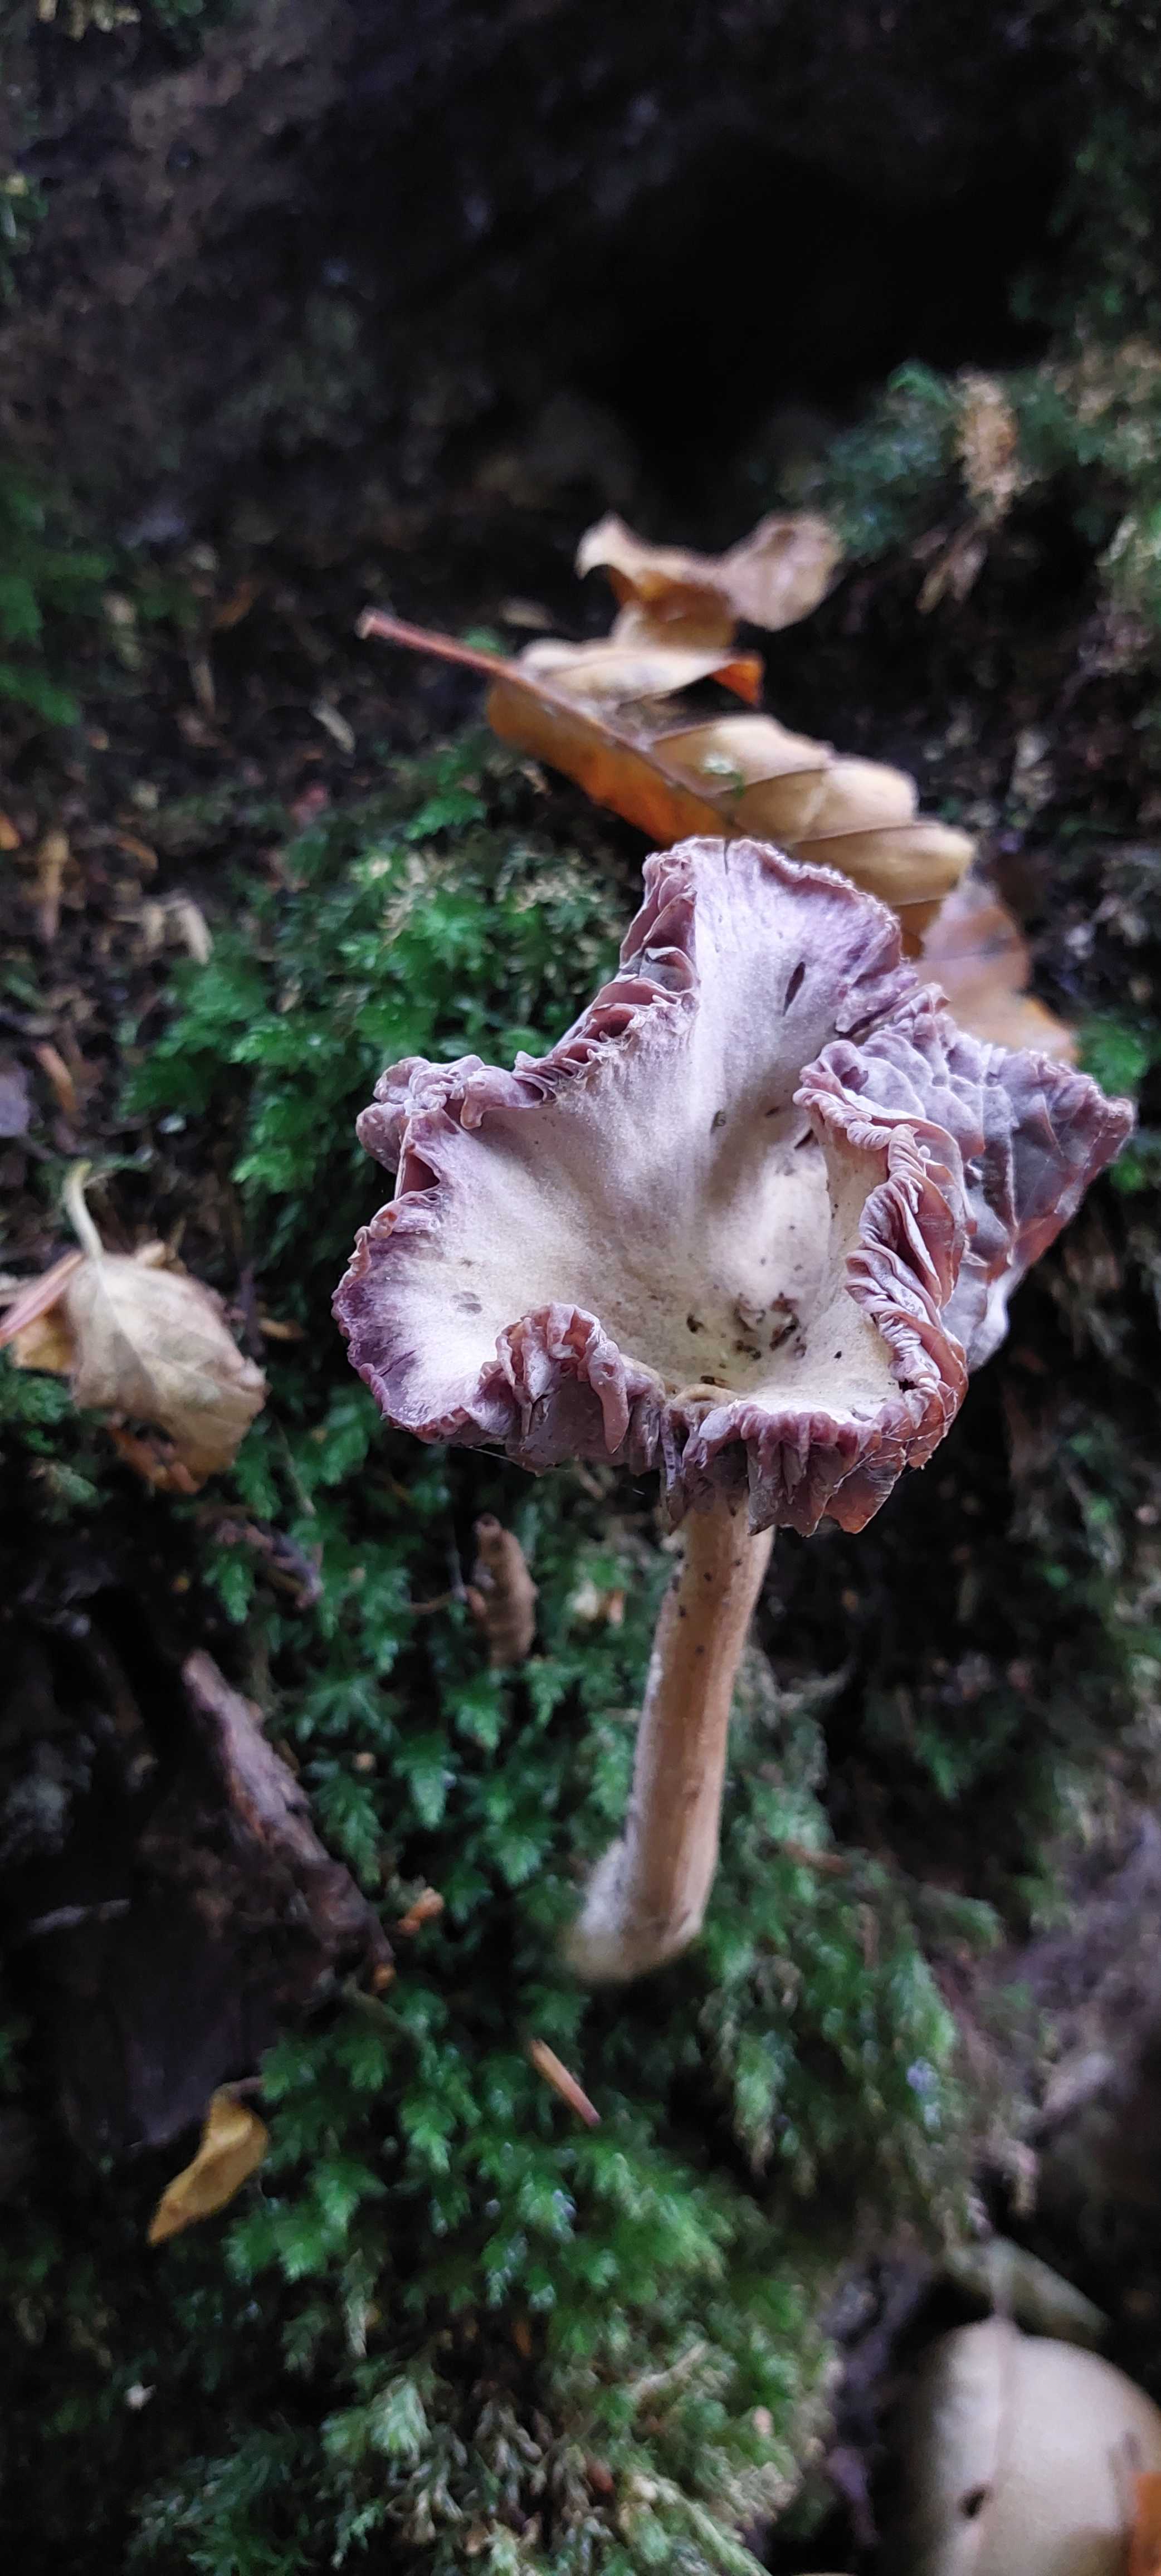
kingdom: Fungi
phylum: Basidiomycota
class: Agaricomycetes
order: Agaricales
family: Hydnangiaceae
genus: Laccaria
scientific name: Laccaria amethystina
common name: violet ametysthat
